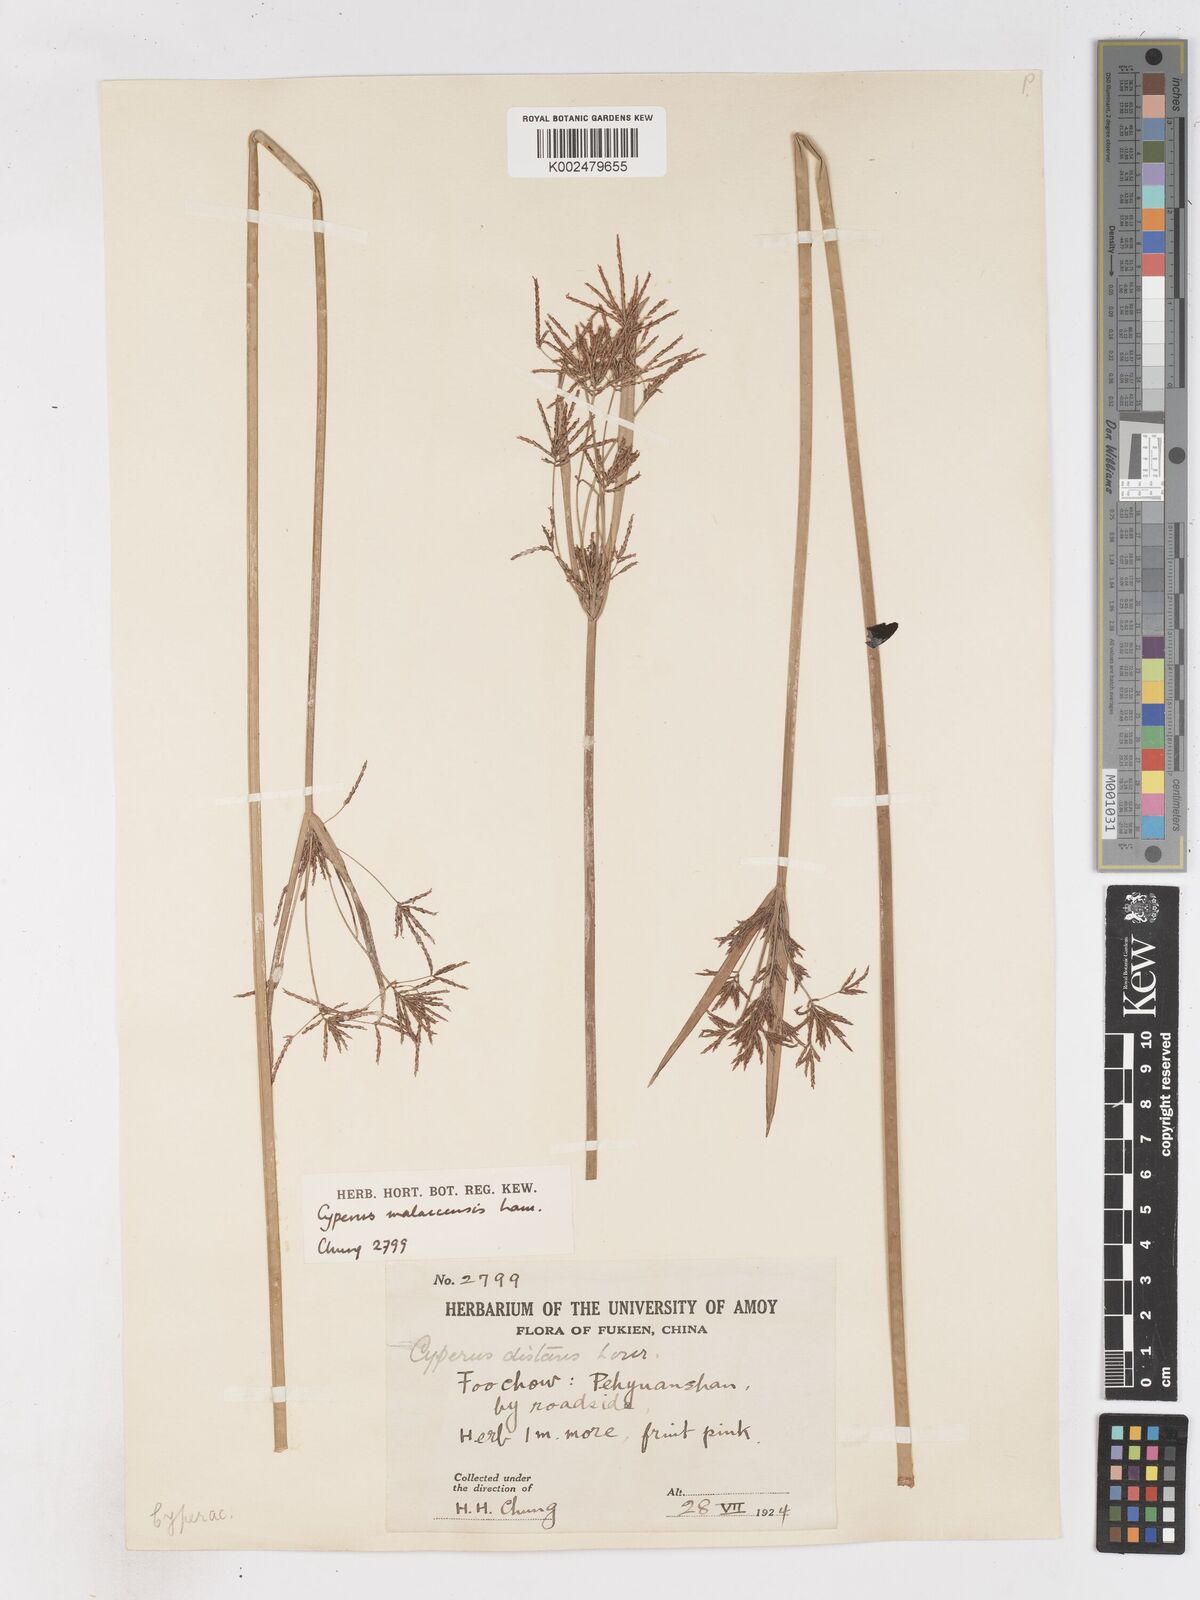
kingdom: Plantae
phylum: Tracheophyta
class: Liliopsida
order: Poales
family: Cyperaceae
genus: Cyperus
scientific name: Cyperus malaccensis
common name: Shichito matgrass
